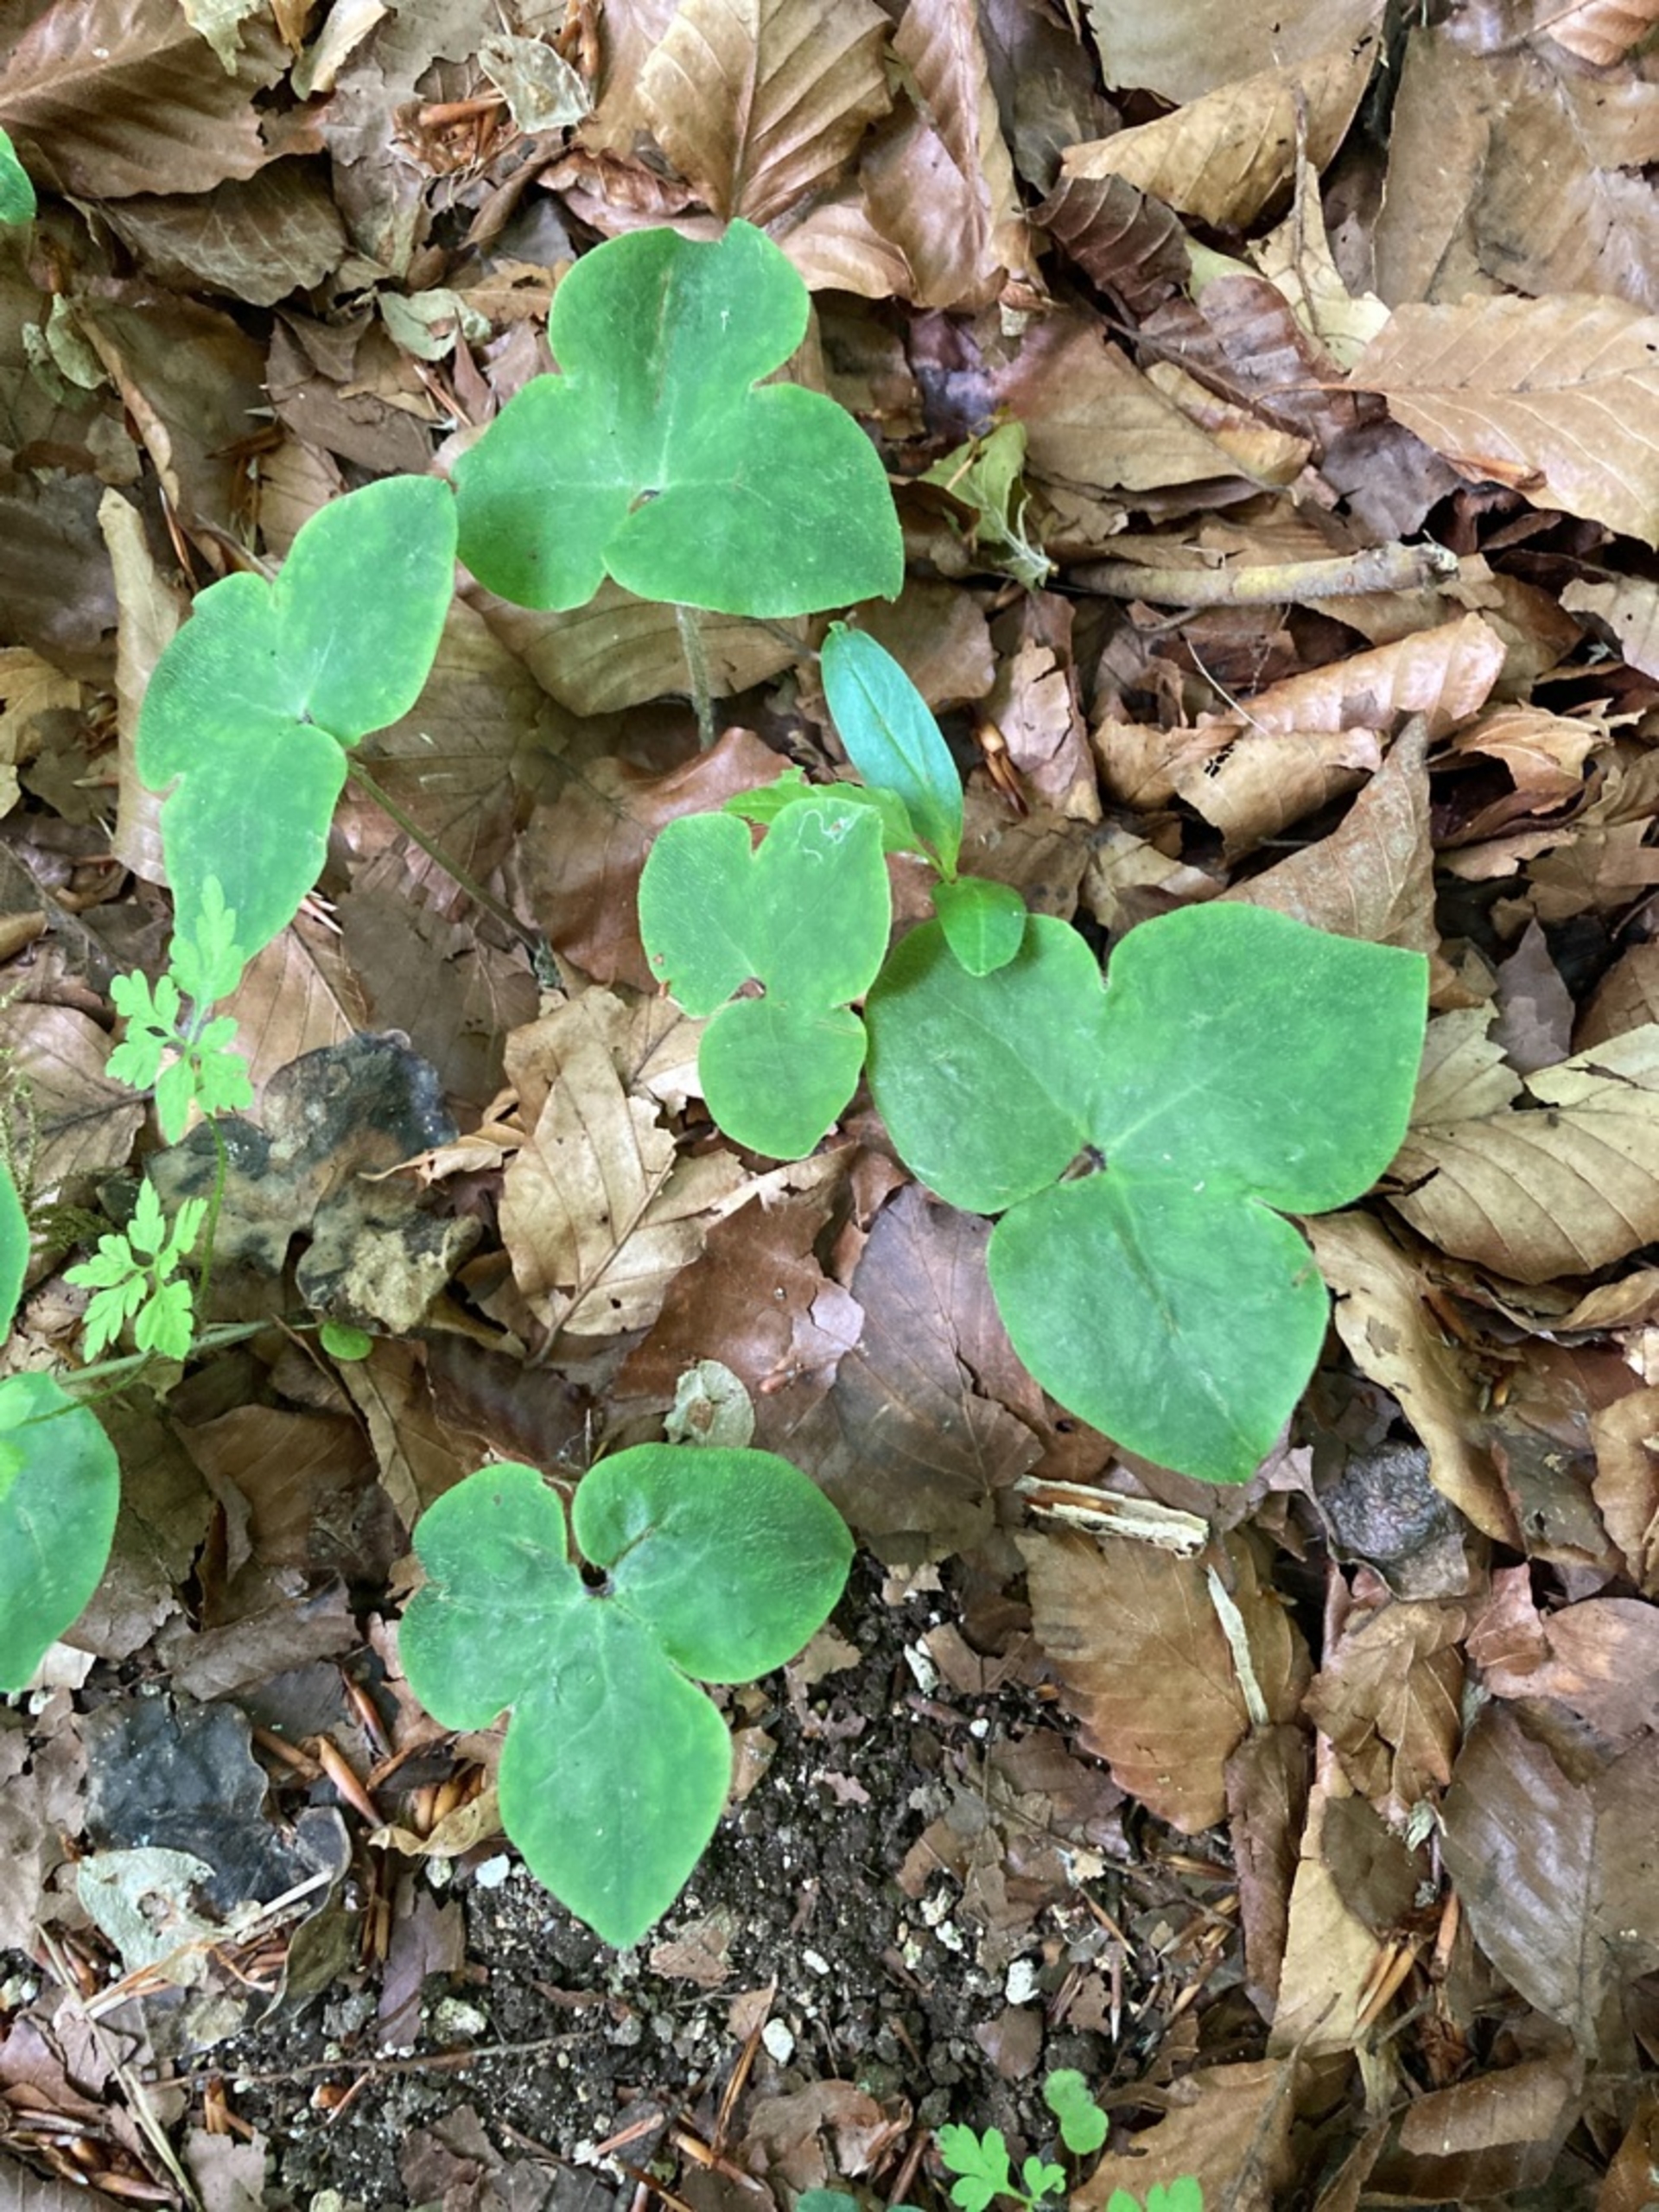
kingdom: Plantae
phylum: Tracheophyta
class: Magnoliopsida
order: Ranunculales
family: Ranunculaceae
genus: Hepatica
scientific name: Hepatica nobilis
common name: Blå anemone
